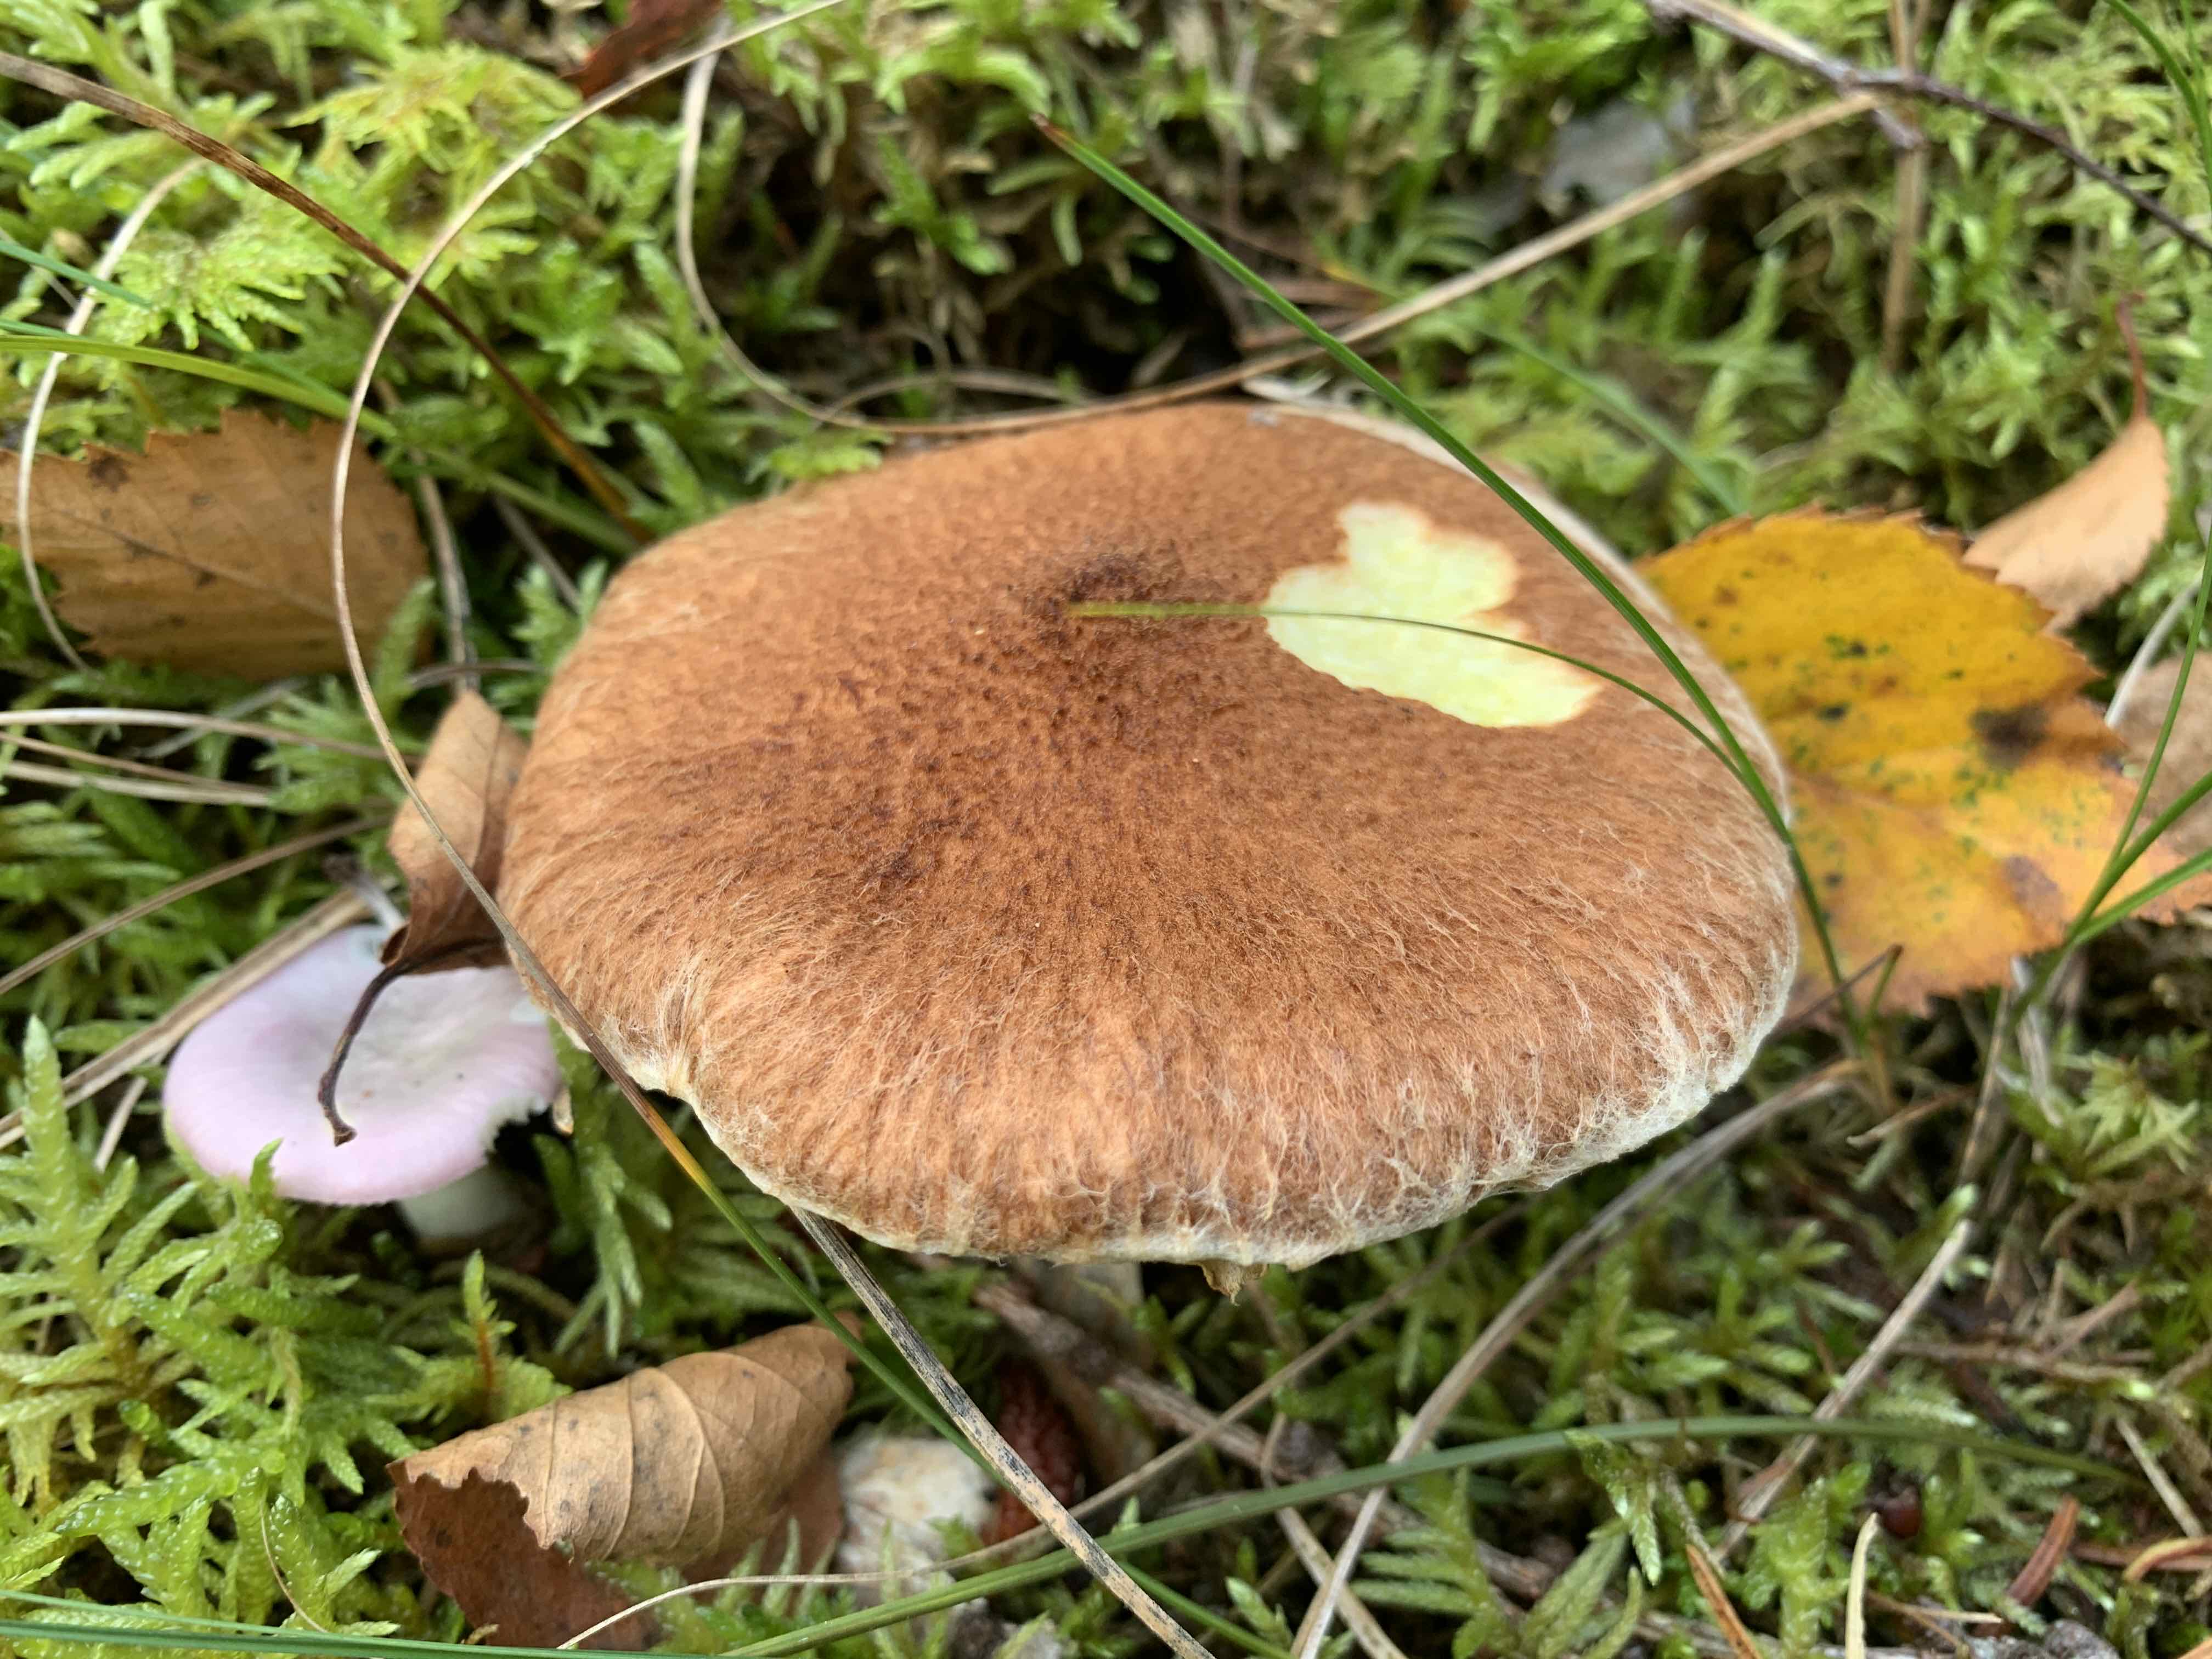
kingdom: Fungi
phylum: Basidiomycota
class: Agaricomycetes
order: Boletales
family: Suillaceae
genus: Suillus
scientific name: Suillus cavipes
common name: hulstokket slimrørhat
